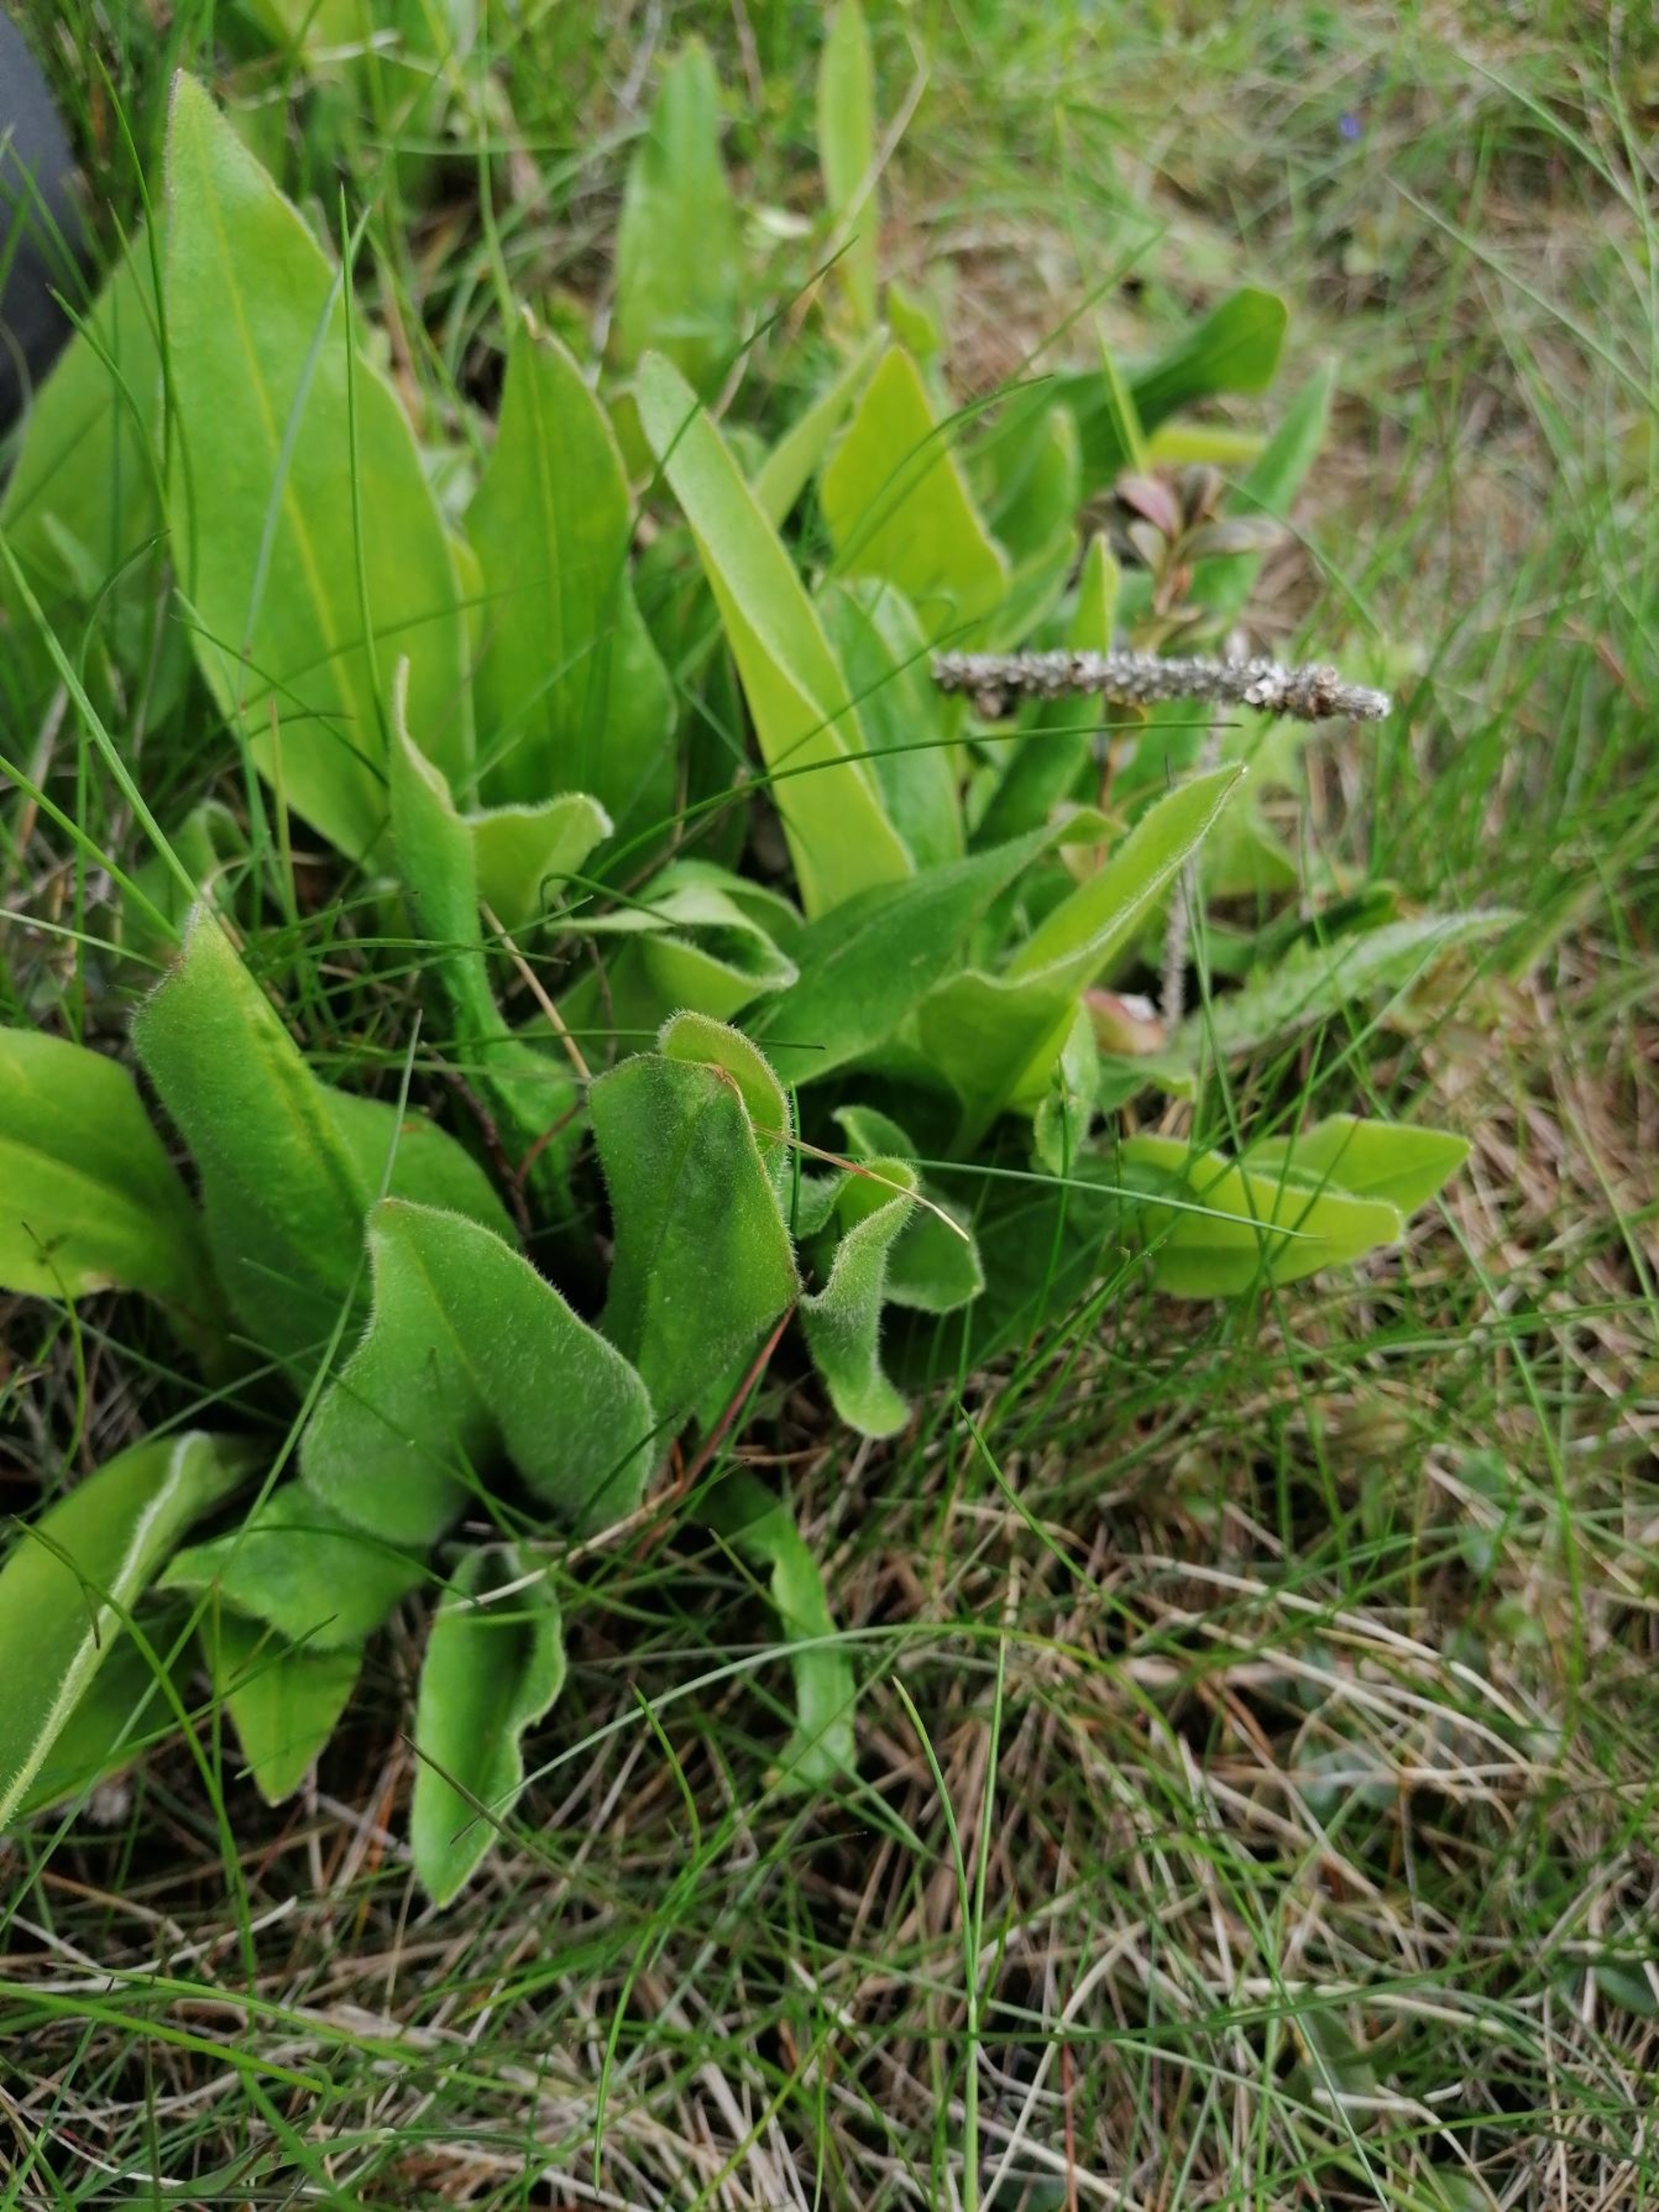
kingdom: Plantae
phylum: Tracheophyta
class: Magnoliopsida
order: Asterales
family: Asteraceae
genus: Arnica
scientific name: Arnica montana
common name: Guldblomme
